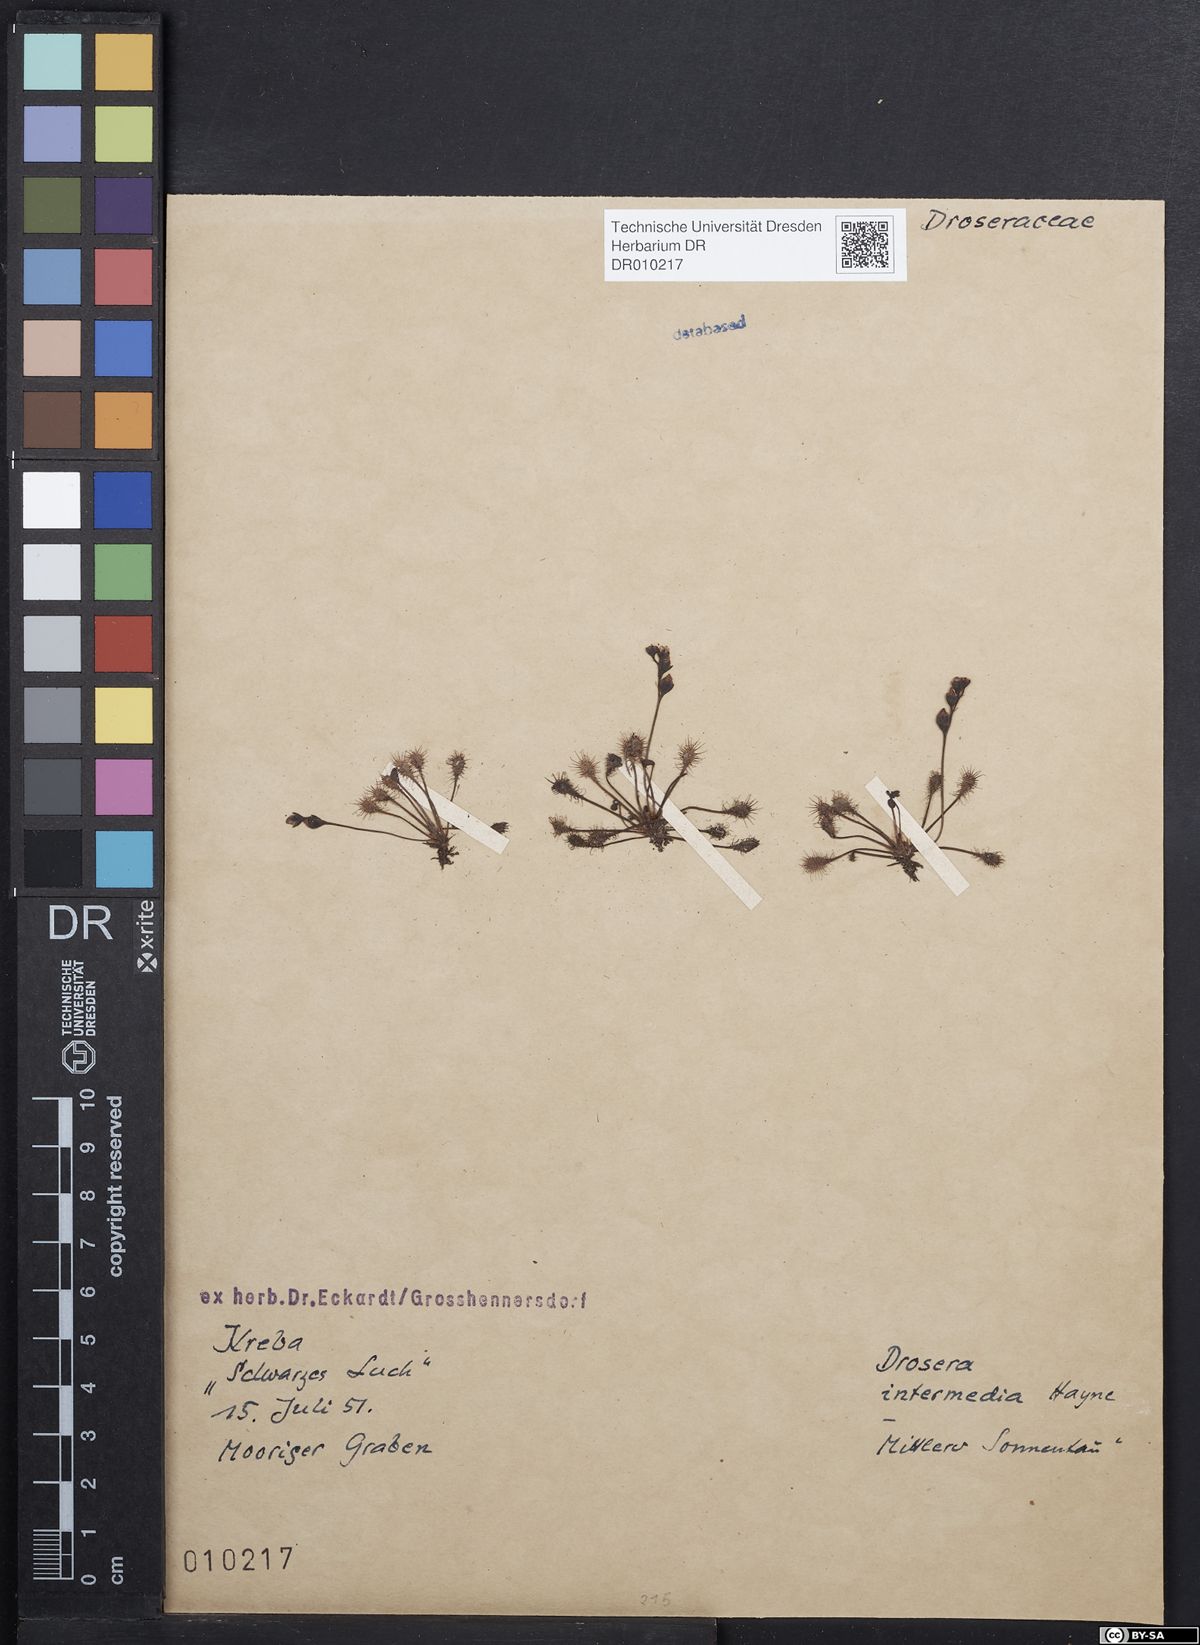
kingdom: Plantae
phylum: Tracheophyta
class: Magnoliopsida
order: Caryophyllales
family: Droseraceae
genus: Drosera
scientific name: Drosera intermedia
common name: Oblong-leaved sundew
